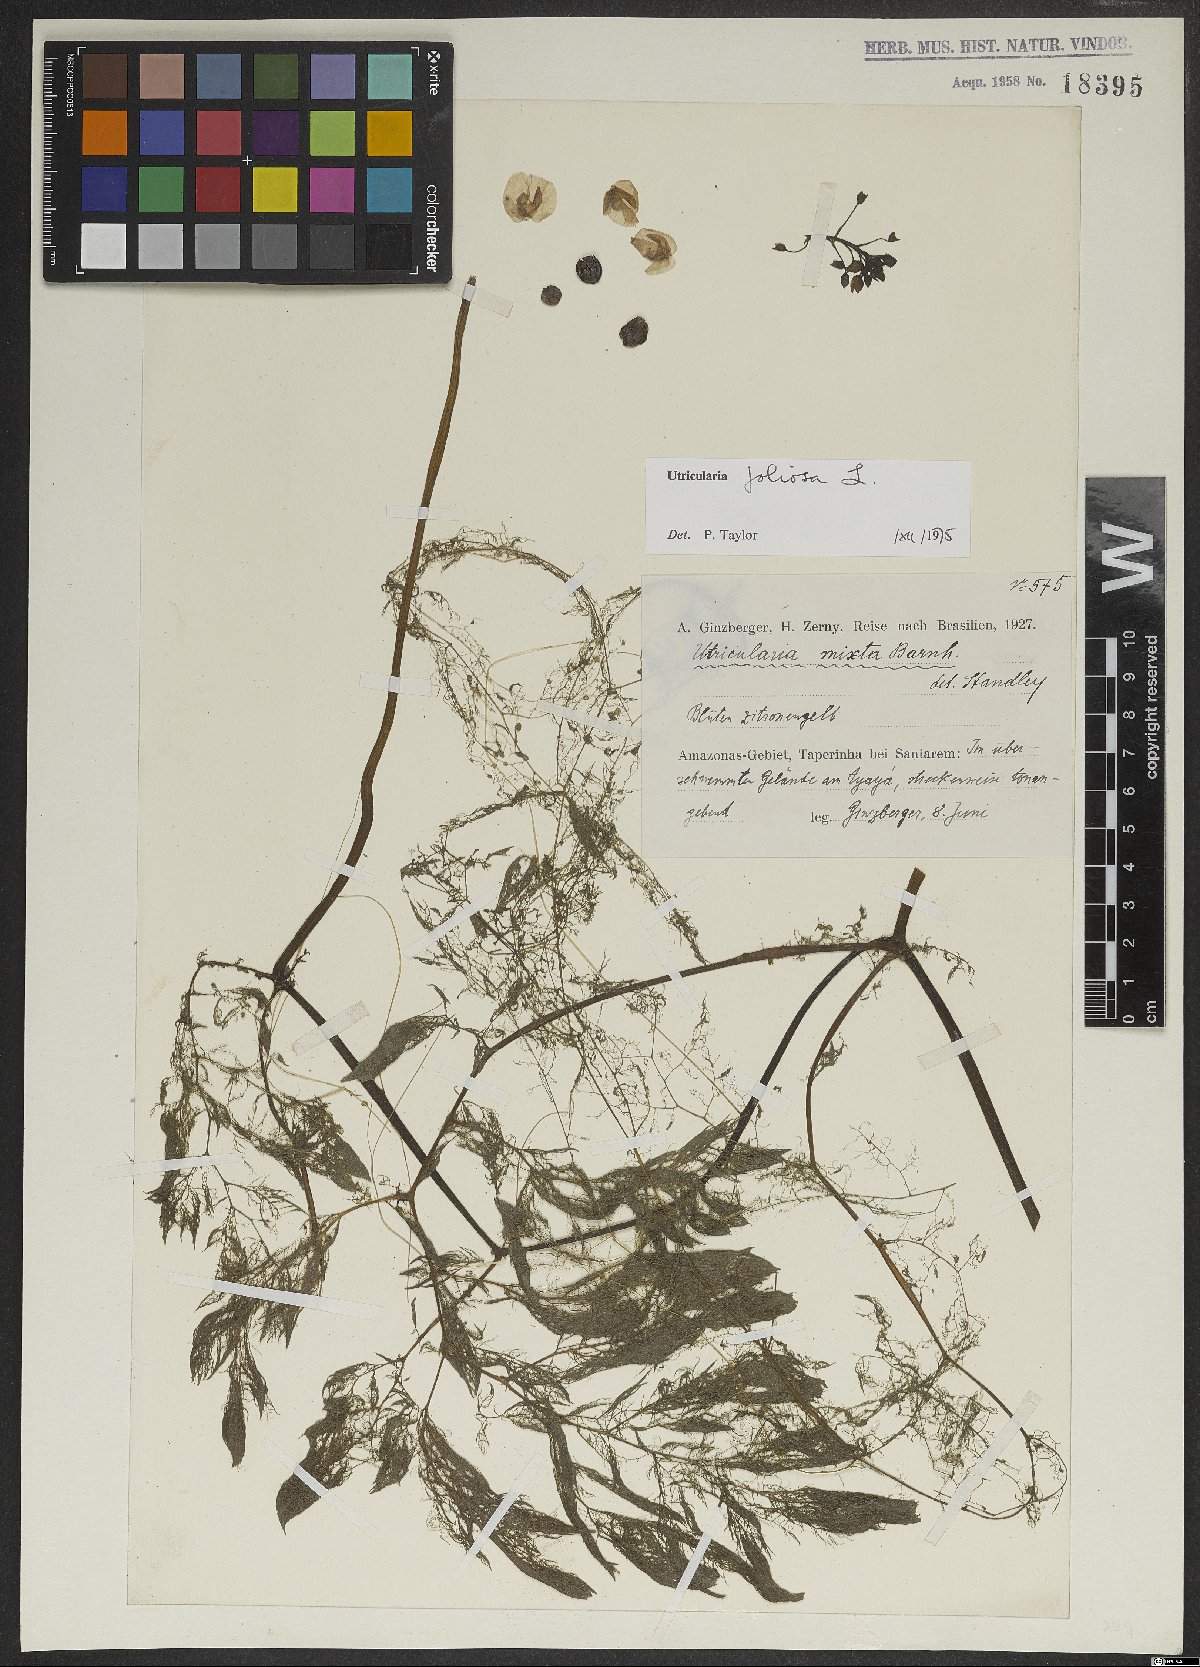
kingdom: Plantae
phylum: Tracheophyta
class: Magnoliopsida
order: Lamiales
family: Lentibulariaceae
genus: Utricularia
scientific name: Utricularia foliosa
